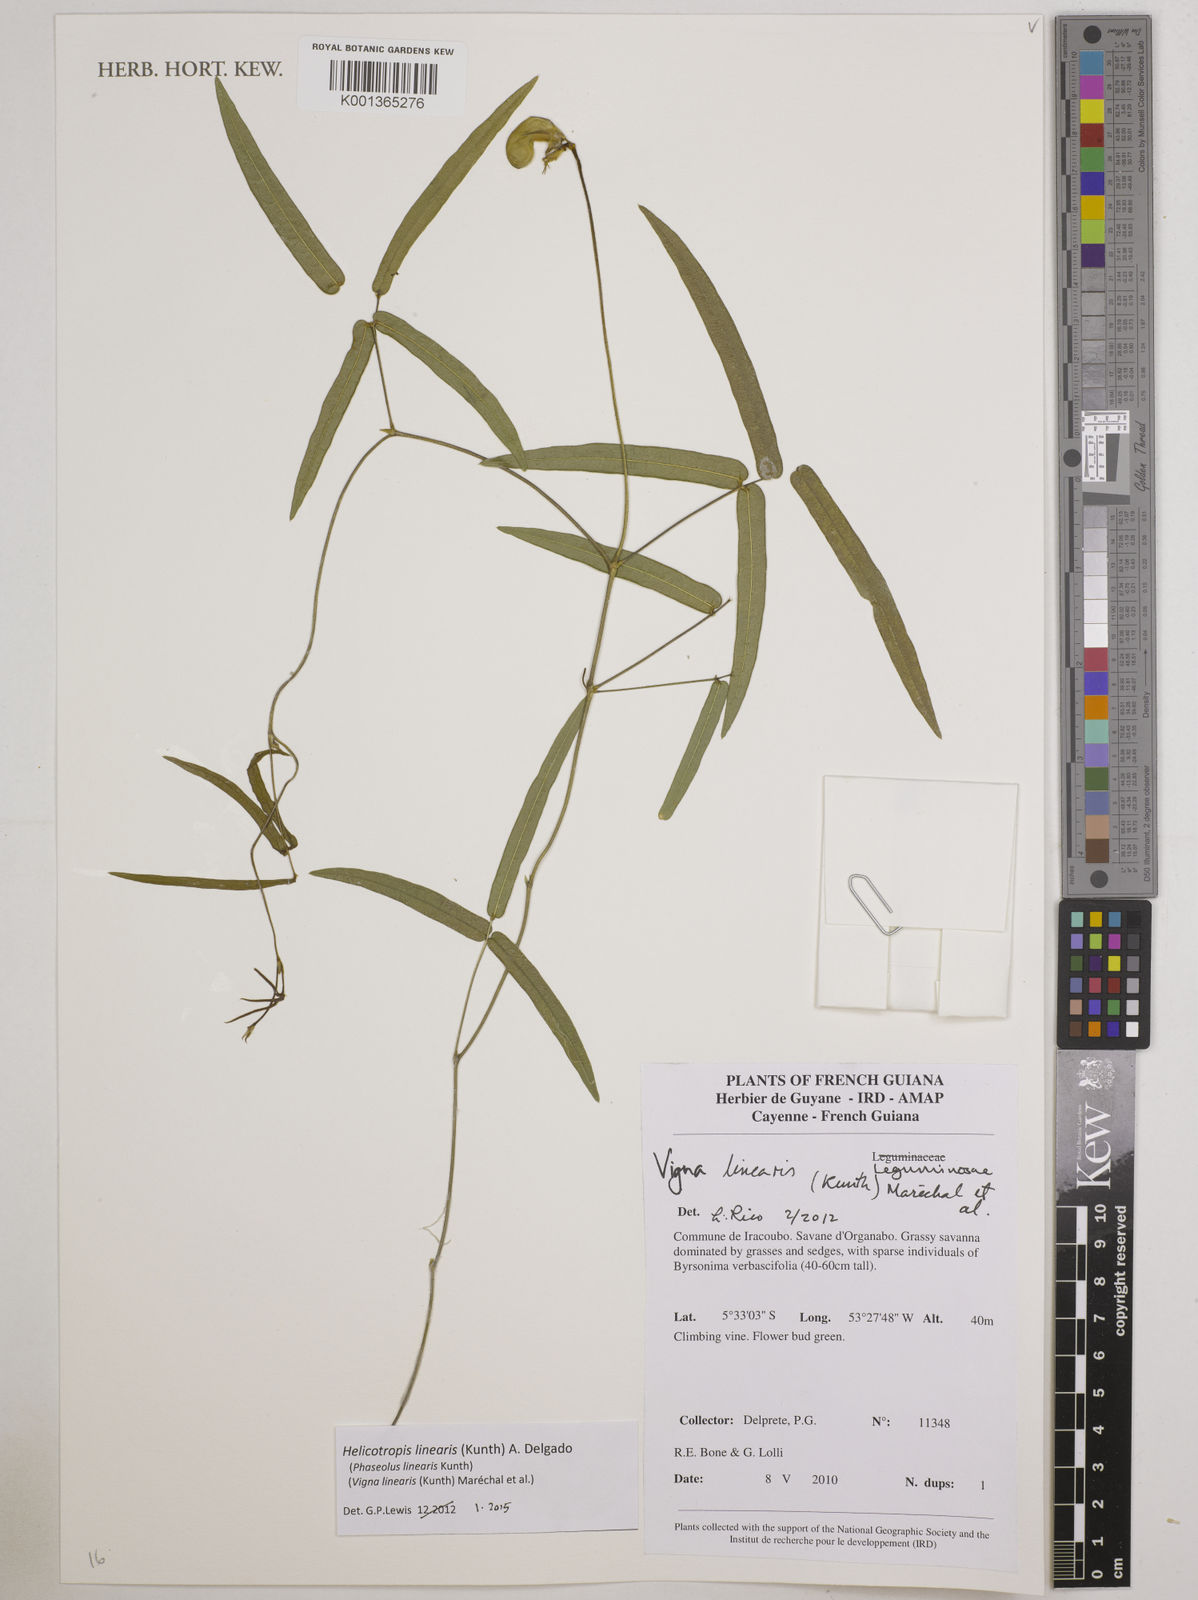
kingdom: Plantae
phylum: Tracheophyta
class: Magnoliopsida
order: Fabales
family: Fabaceae
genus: Helicotropis
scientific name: Helicotropis linearis
